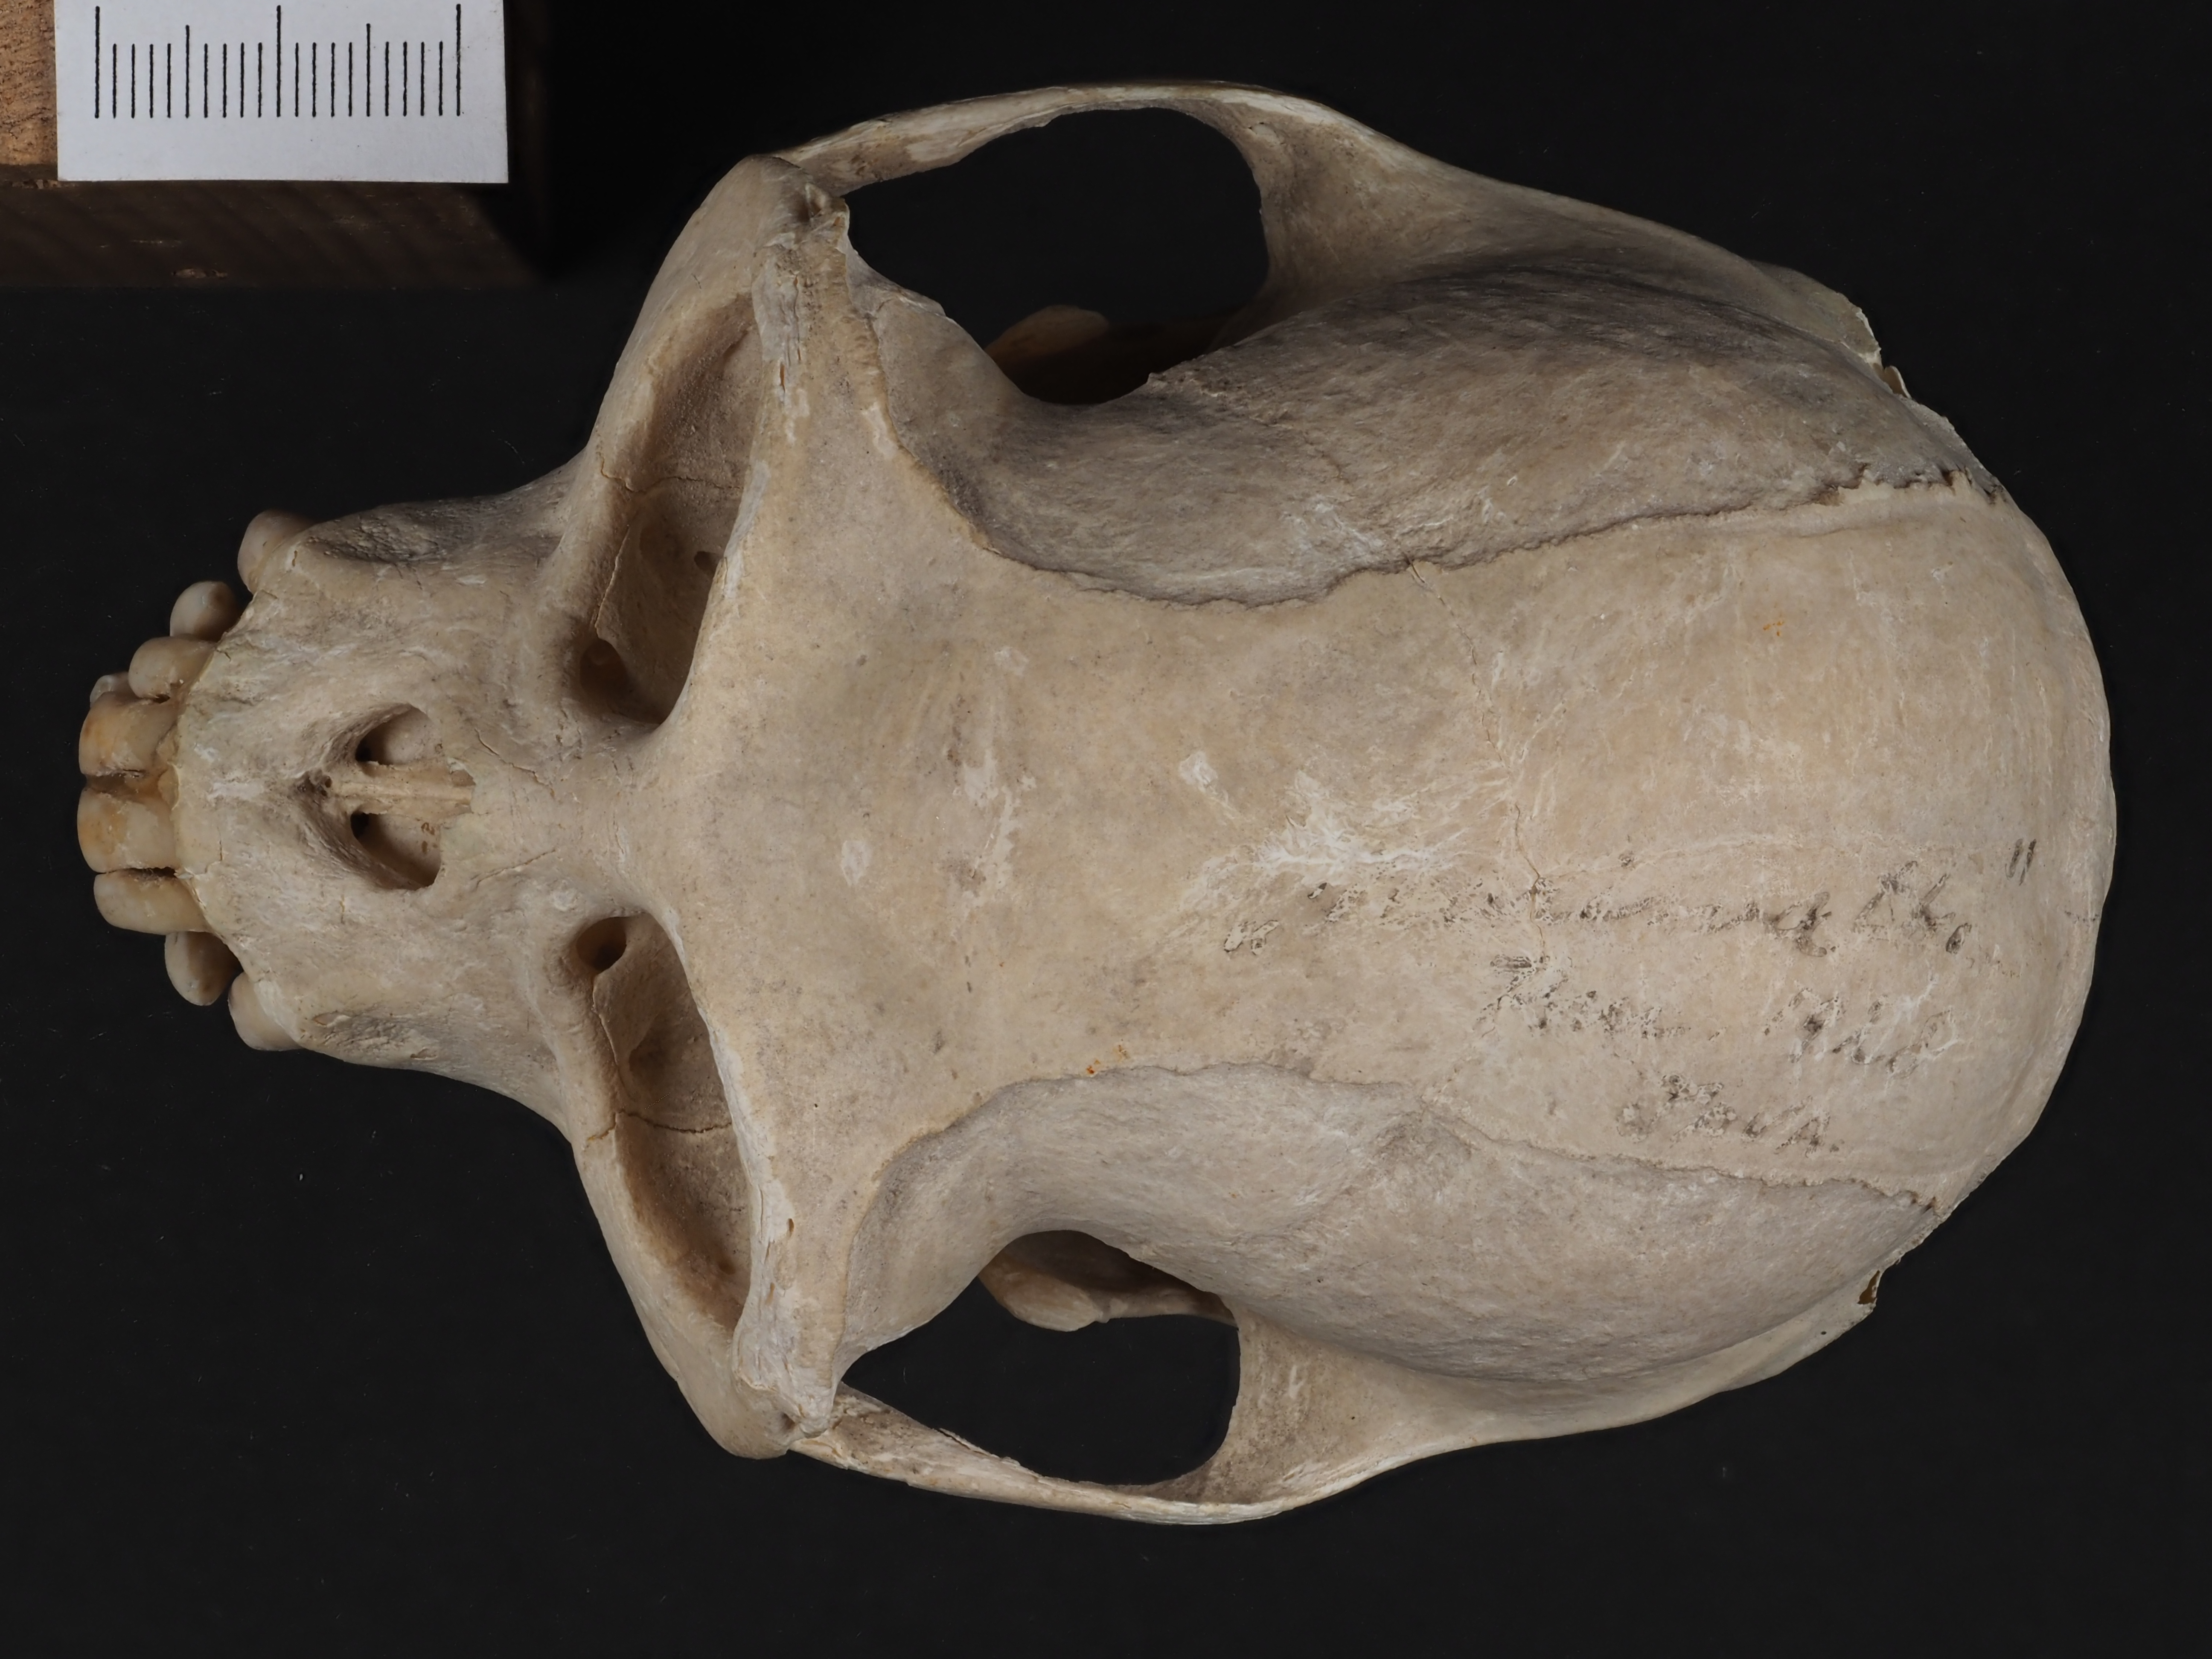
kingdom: Animalia
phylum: Chordata
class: Mammalia
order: Primates
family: Cercopithecidae
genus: Colobus
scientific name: Colobus polykomos
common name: King colobus
